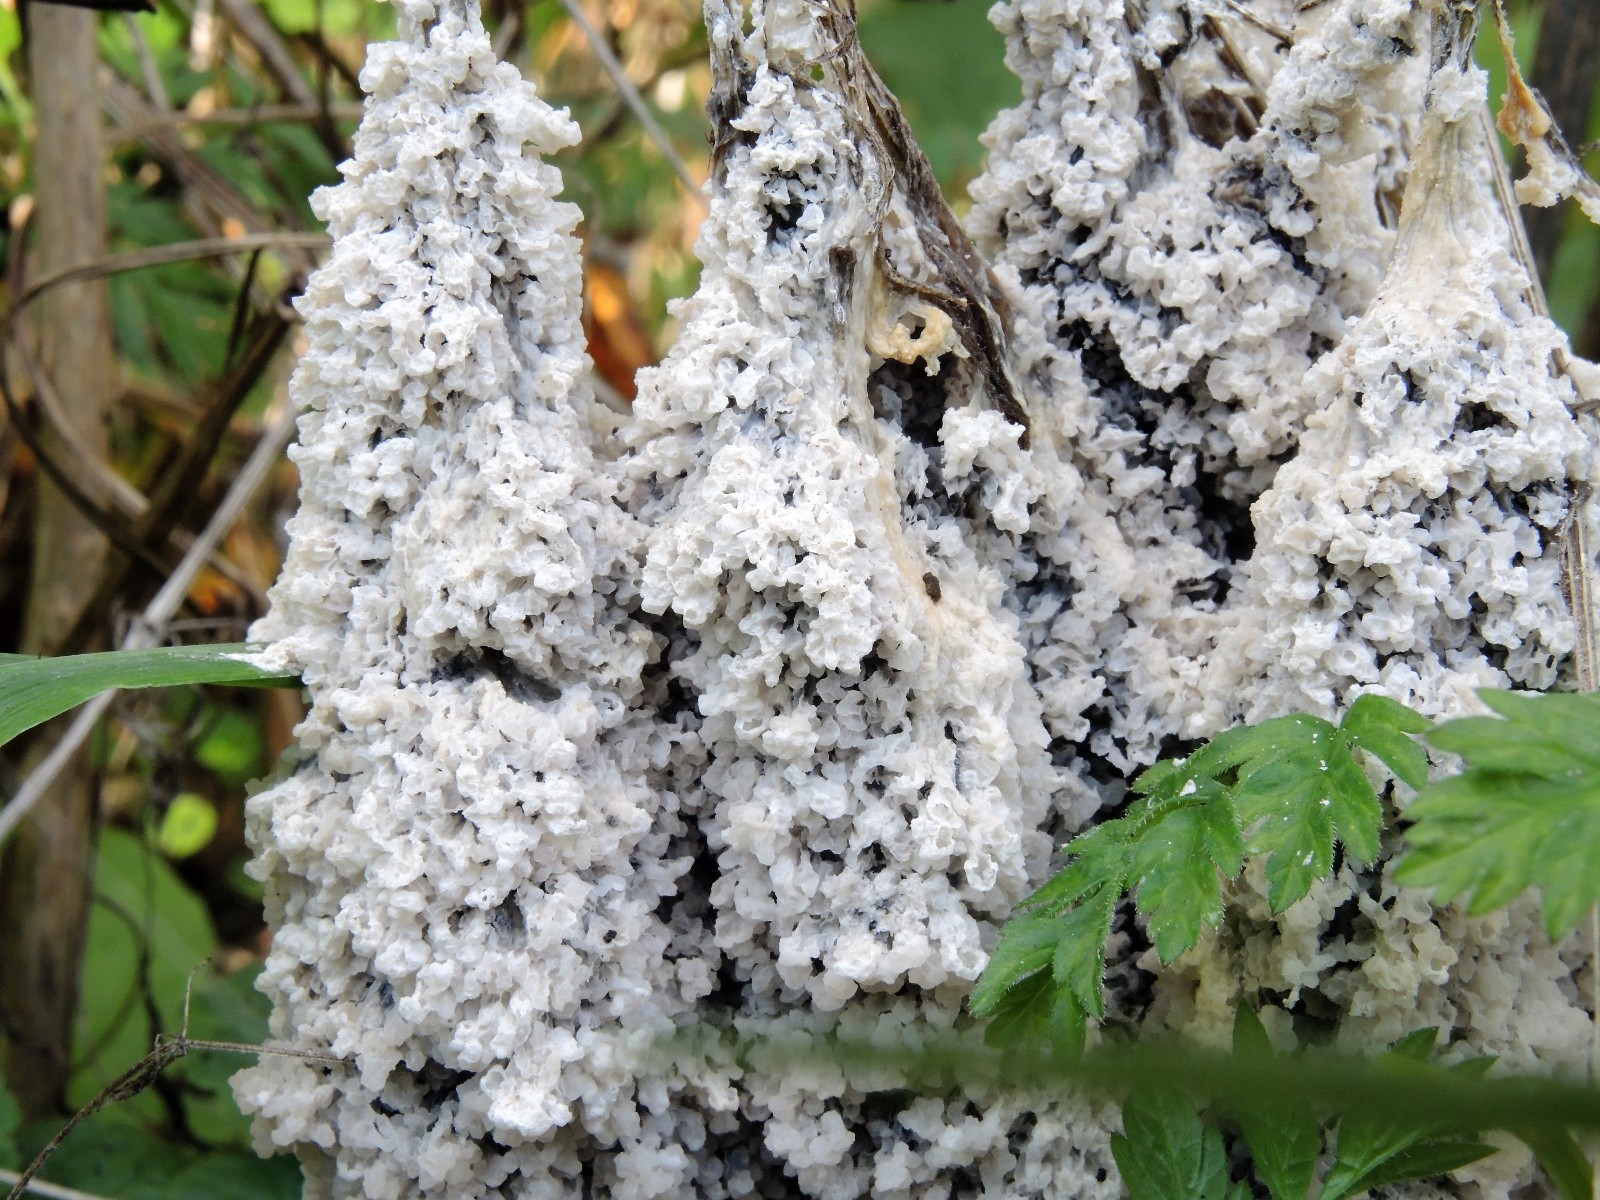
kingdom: Protozoa
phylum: Mycetozoa
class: Myxomycetes
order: Physarales
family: Physaraceae
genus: Didymium
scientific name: Didymium
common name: urteskum
